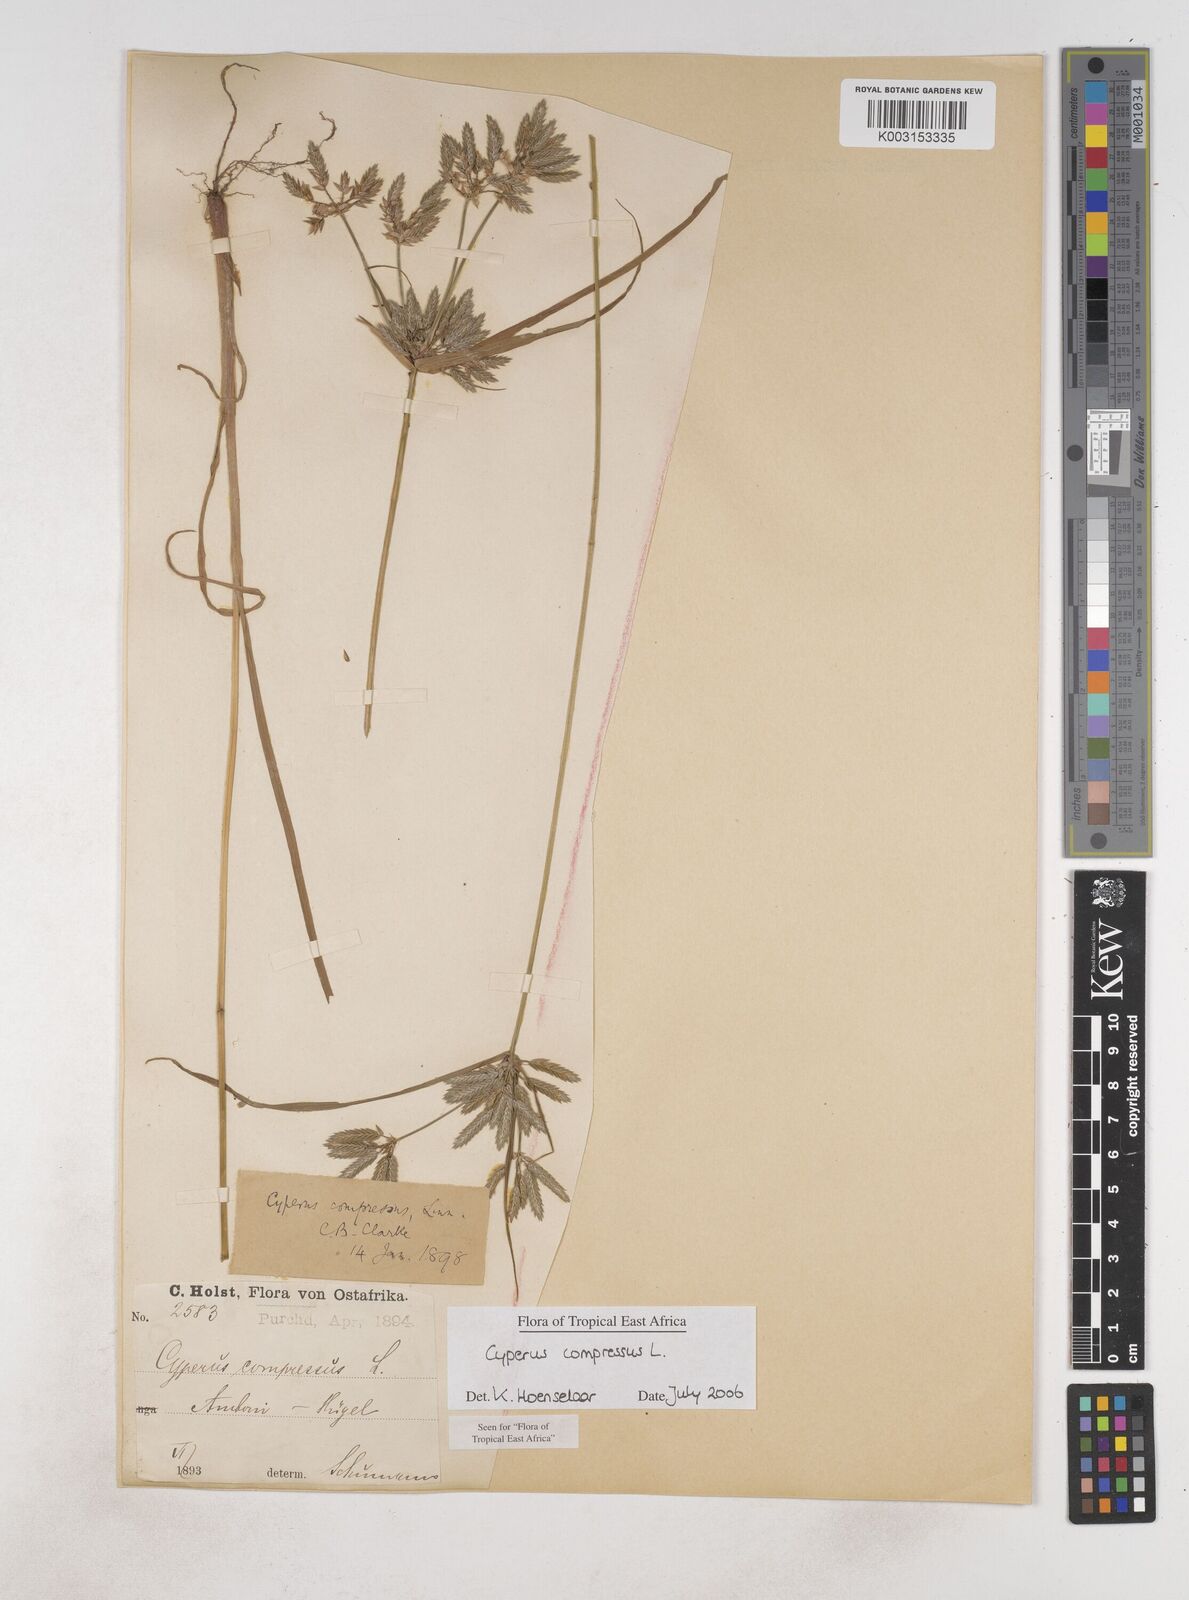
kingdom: Plantae
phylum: Tracheophyta
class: Liliopsida
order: Poales
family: Cyperaceae
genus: Cyperus
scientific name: Cyperus compressus
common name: Poorland flatsedge
